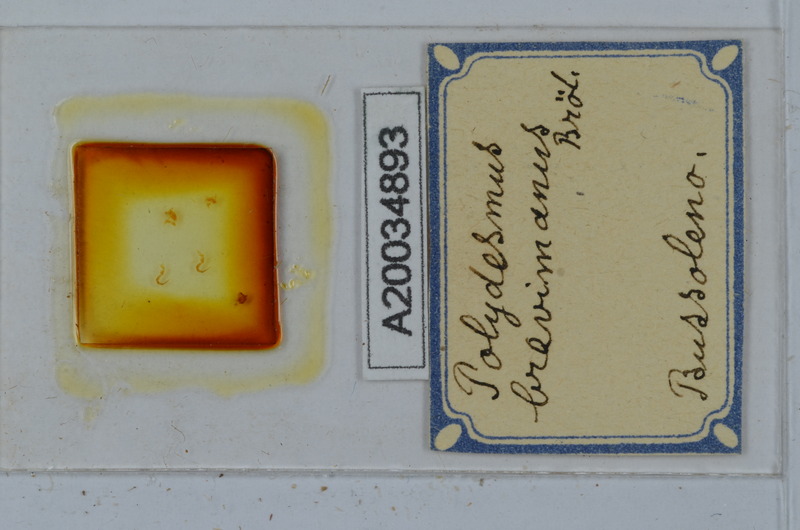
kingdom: Animalia
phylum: Arthropoda
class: Diplopoda
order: Polydesmida
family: Polydesmidae
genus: Polydesmus
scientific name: Polydesmus brevimanus
